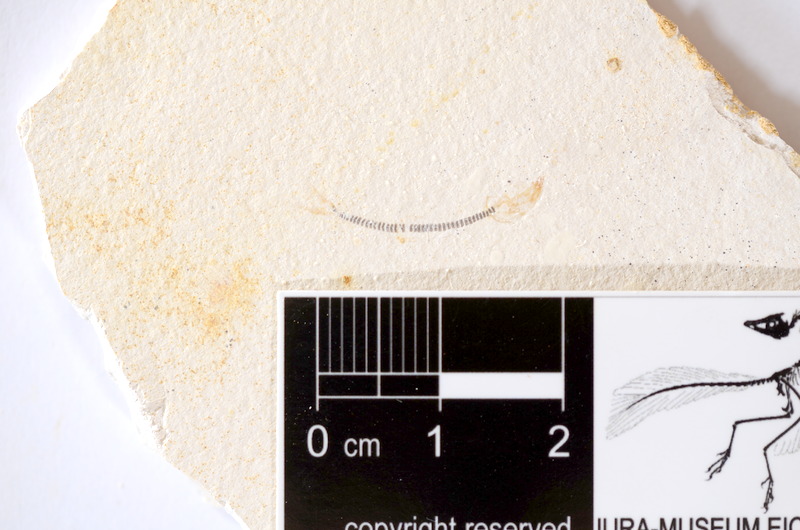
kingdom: Animalia
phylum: Chordata
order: Salmoniformes
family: Orthogonikleithridae
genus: Orthogonikleithrus
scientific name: Orthogonikleithrus hoelli
